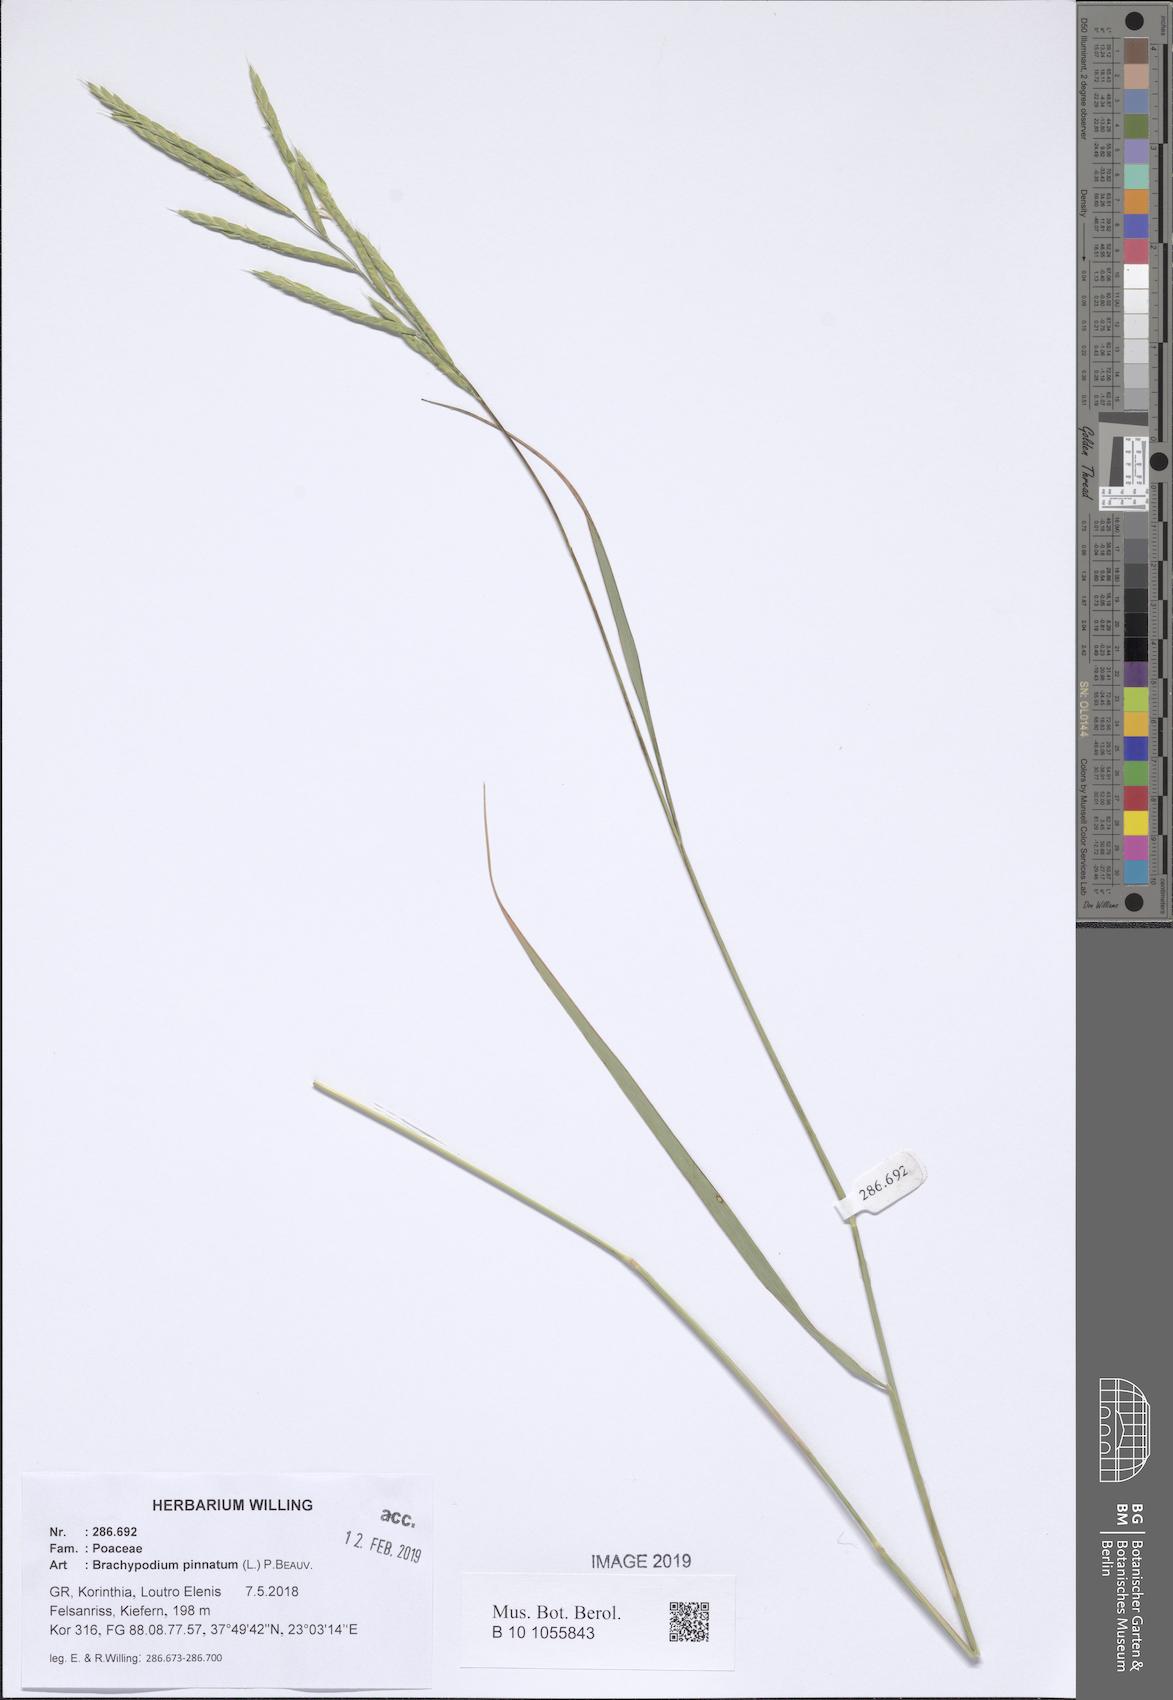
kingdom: Plantae
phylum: Tracheophyta
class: Liliopsida
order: Poales
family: Poaceae
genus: Brachypodium
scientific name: Brachypodium pinnatum
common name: Tor grass
